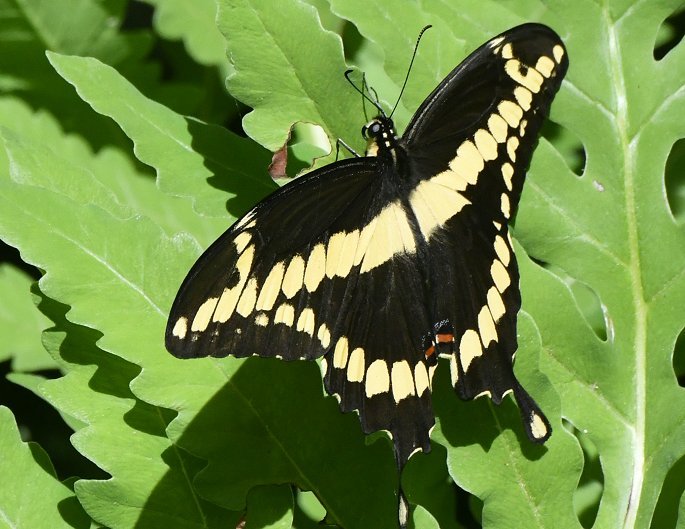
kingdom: Animalia
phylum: Arthropoda
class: Insecta
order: Lepidoptera
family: Papilionidae
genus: Papilio
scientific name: Papilio cresphontes
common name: Eastern Giant Swallowtail
